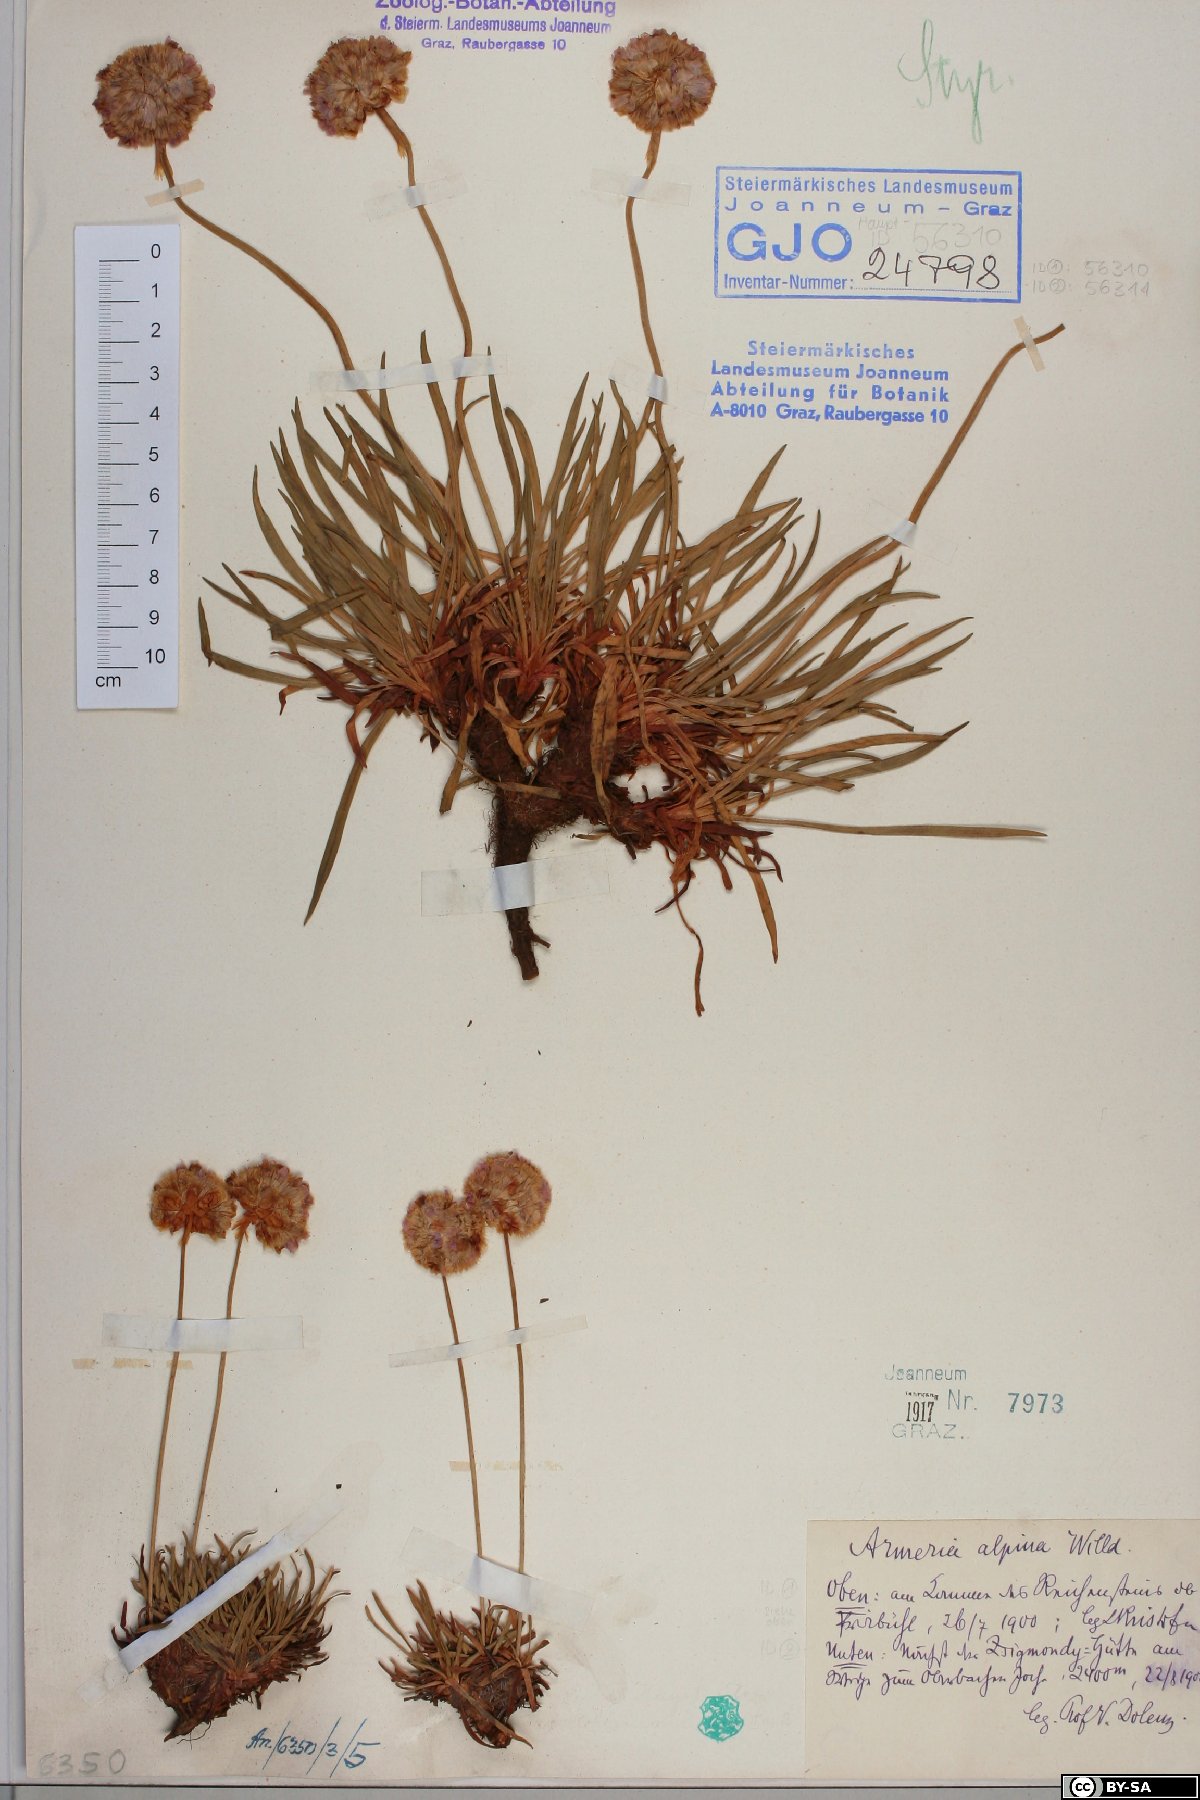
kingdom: Plantae
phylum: Tracheophyta
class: Magnoliopsida
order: Caryophyllales
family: Plumbaginaceae
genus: Armeria
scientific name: Armeria alpina
